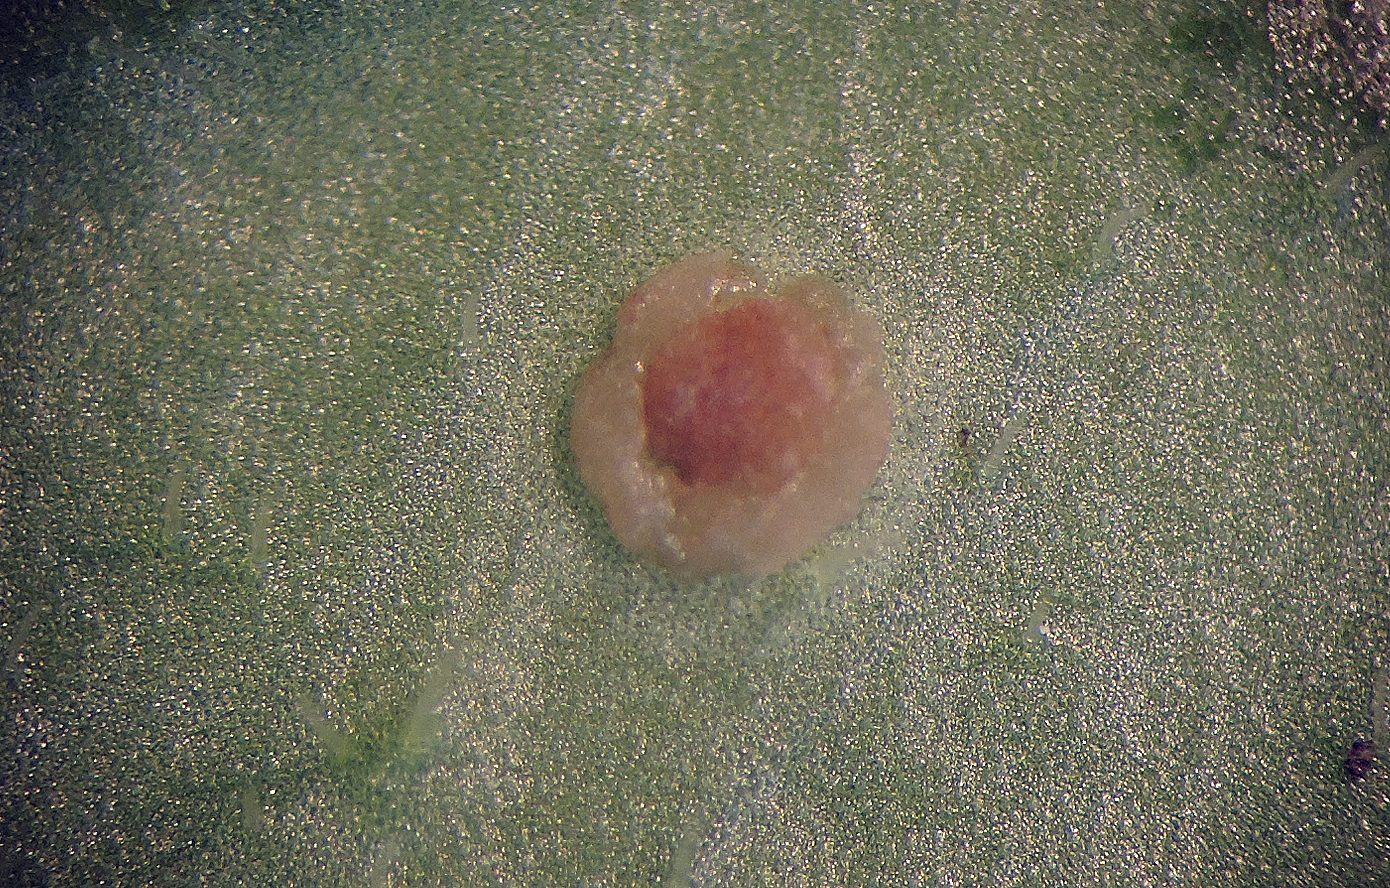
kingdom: Fungi
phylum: Basidiomycota
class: Pucciniomycetes
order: Pucciniales
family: Pucciniaceae
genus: Puccinia
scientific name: Puccinia albulensis
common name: Alpine veronica rust
